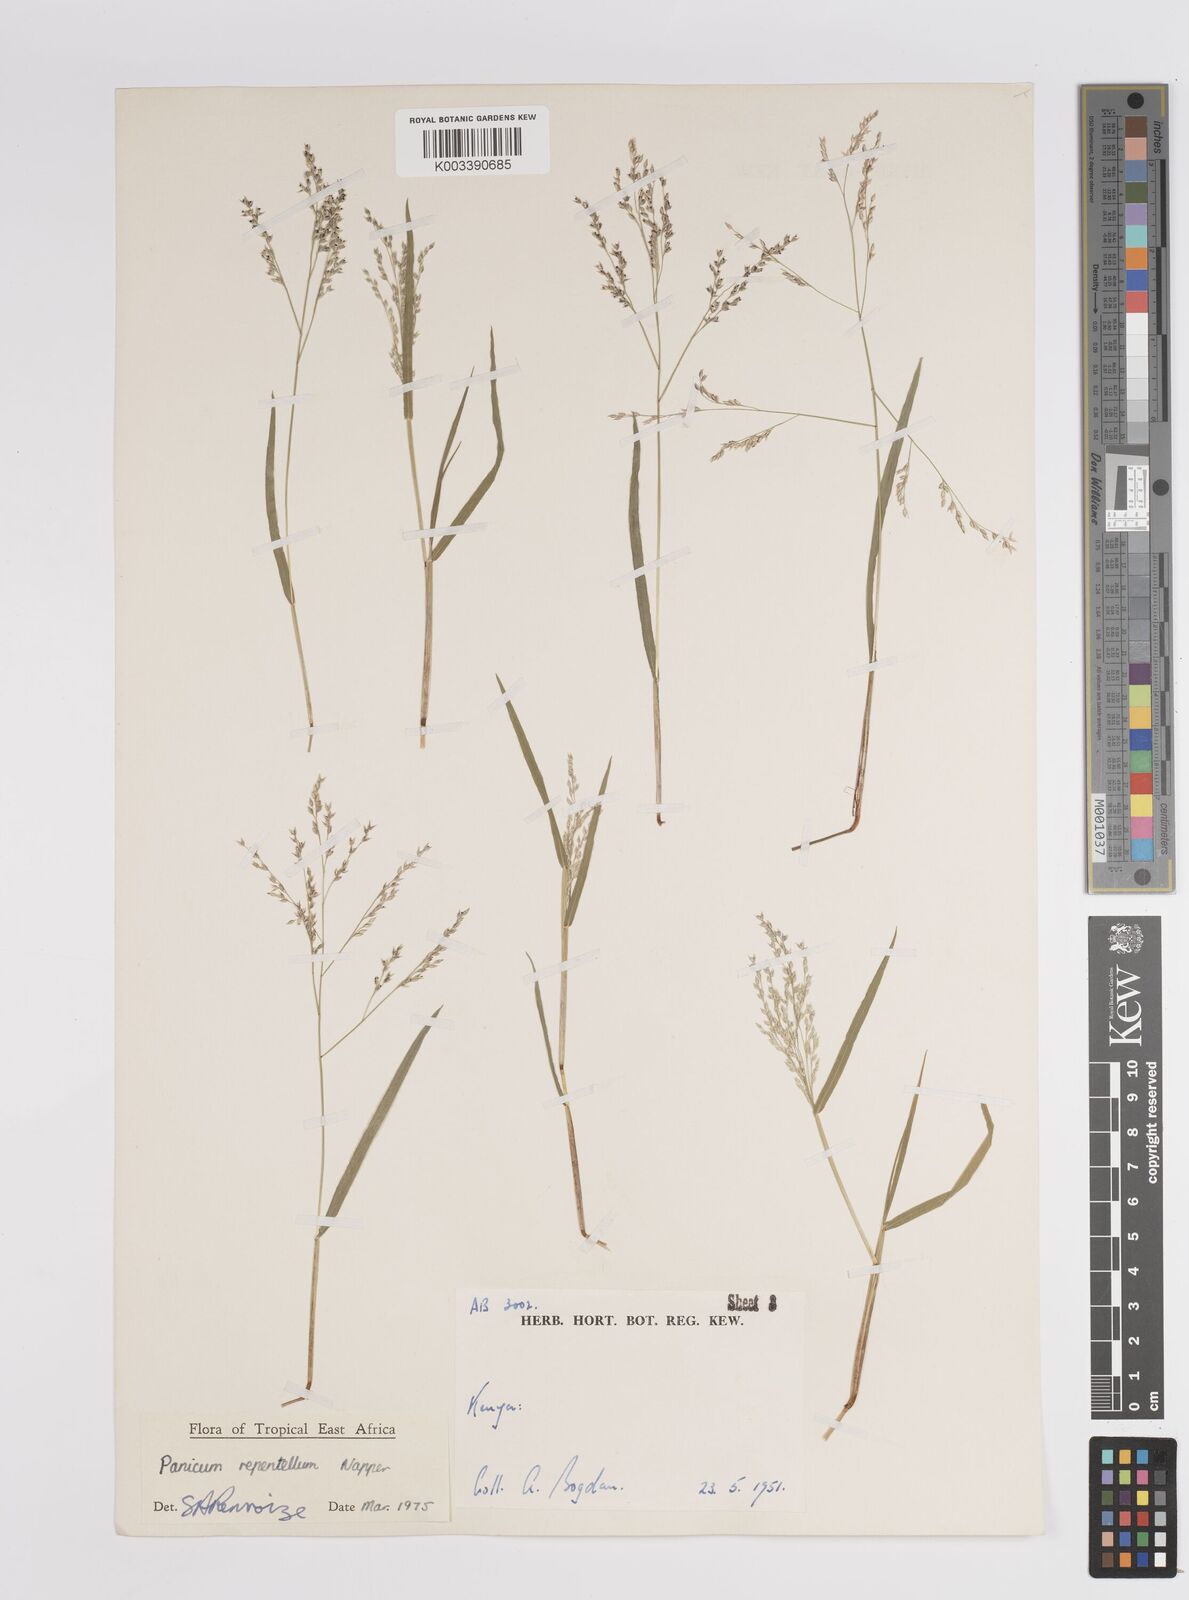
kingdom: Plantae
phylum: Tracheophyta
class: Liliopsida
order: Poales
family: Poaceae
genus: Panicum
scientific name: Panicum hygrocharis
